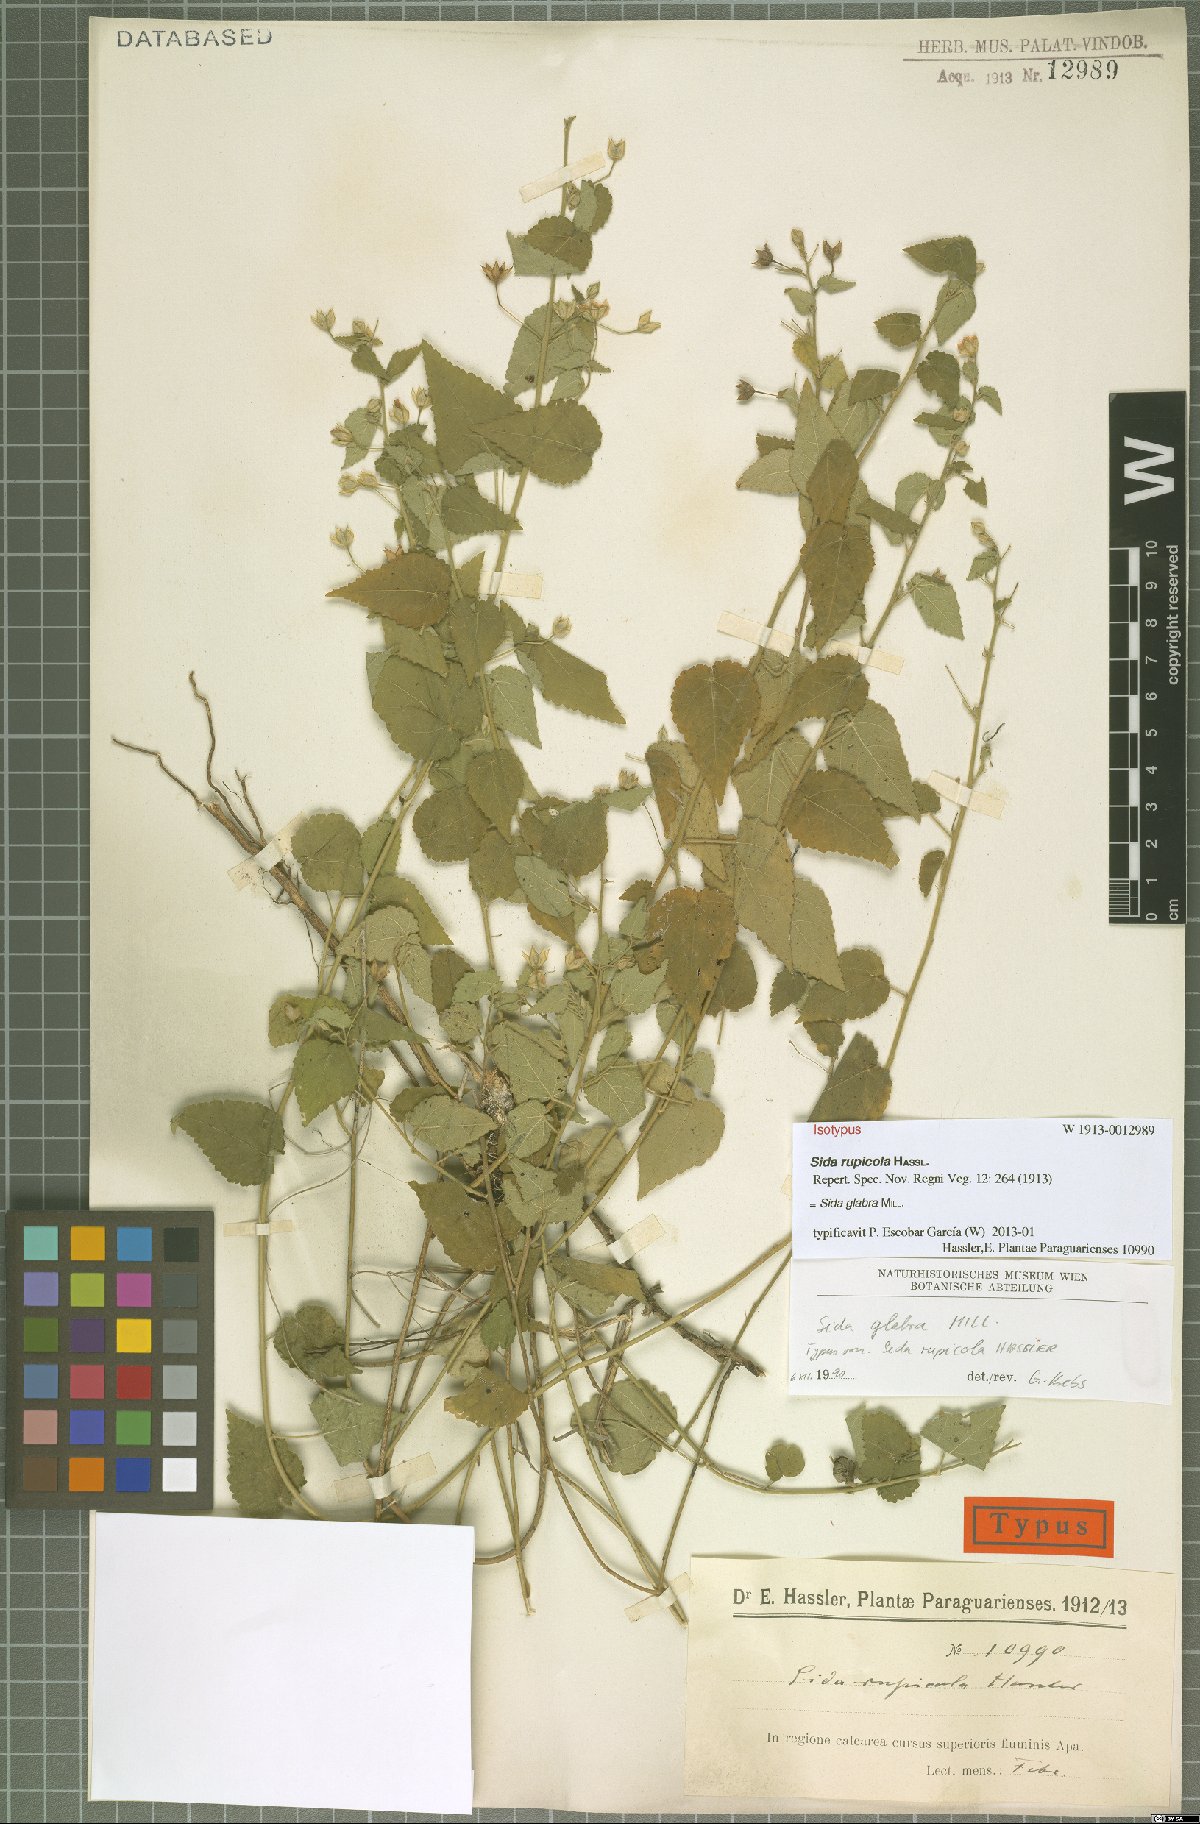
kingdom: Plantae
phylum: Tracheophyta
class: Magnoliopsida
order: Malvales
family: Malvaceae
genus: Sida
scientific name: Sida glabra
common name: Smooth fanpetals
